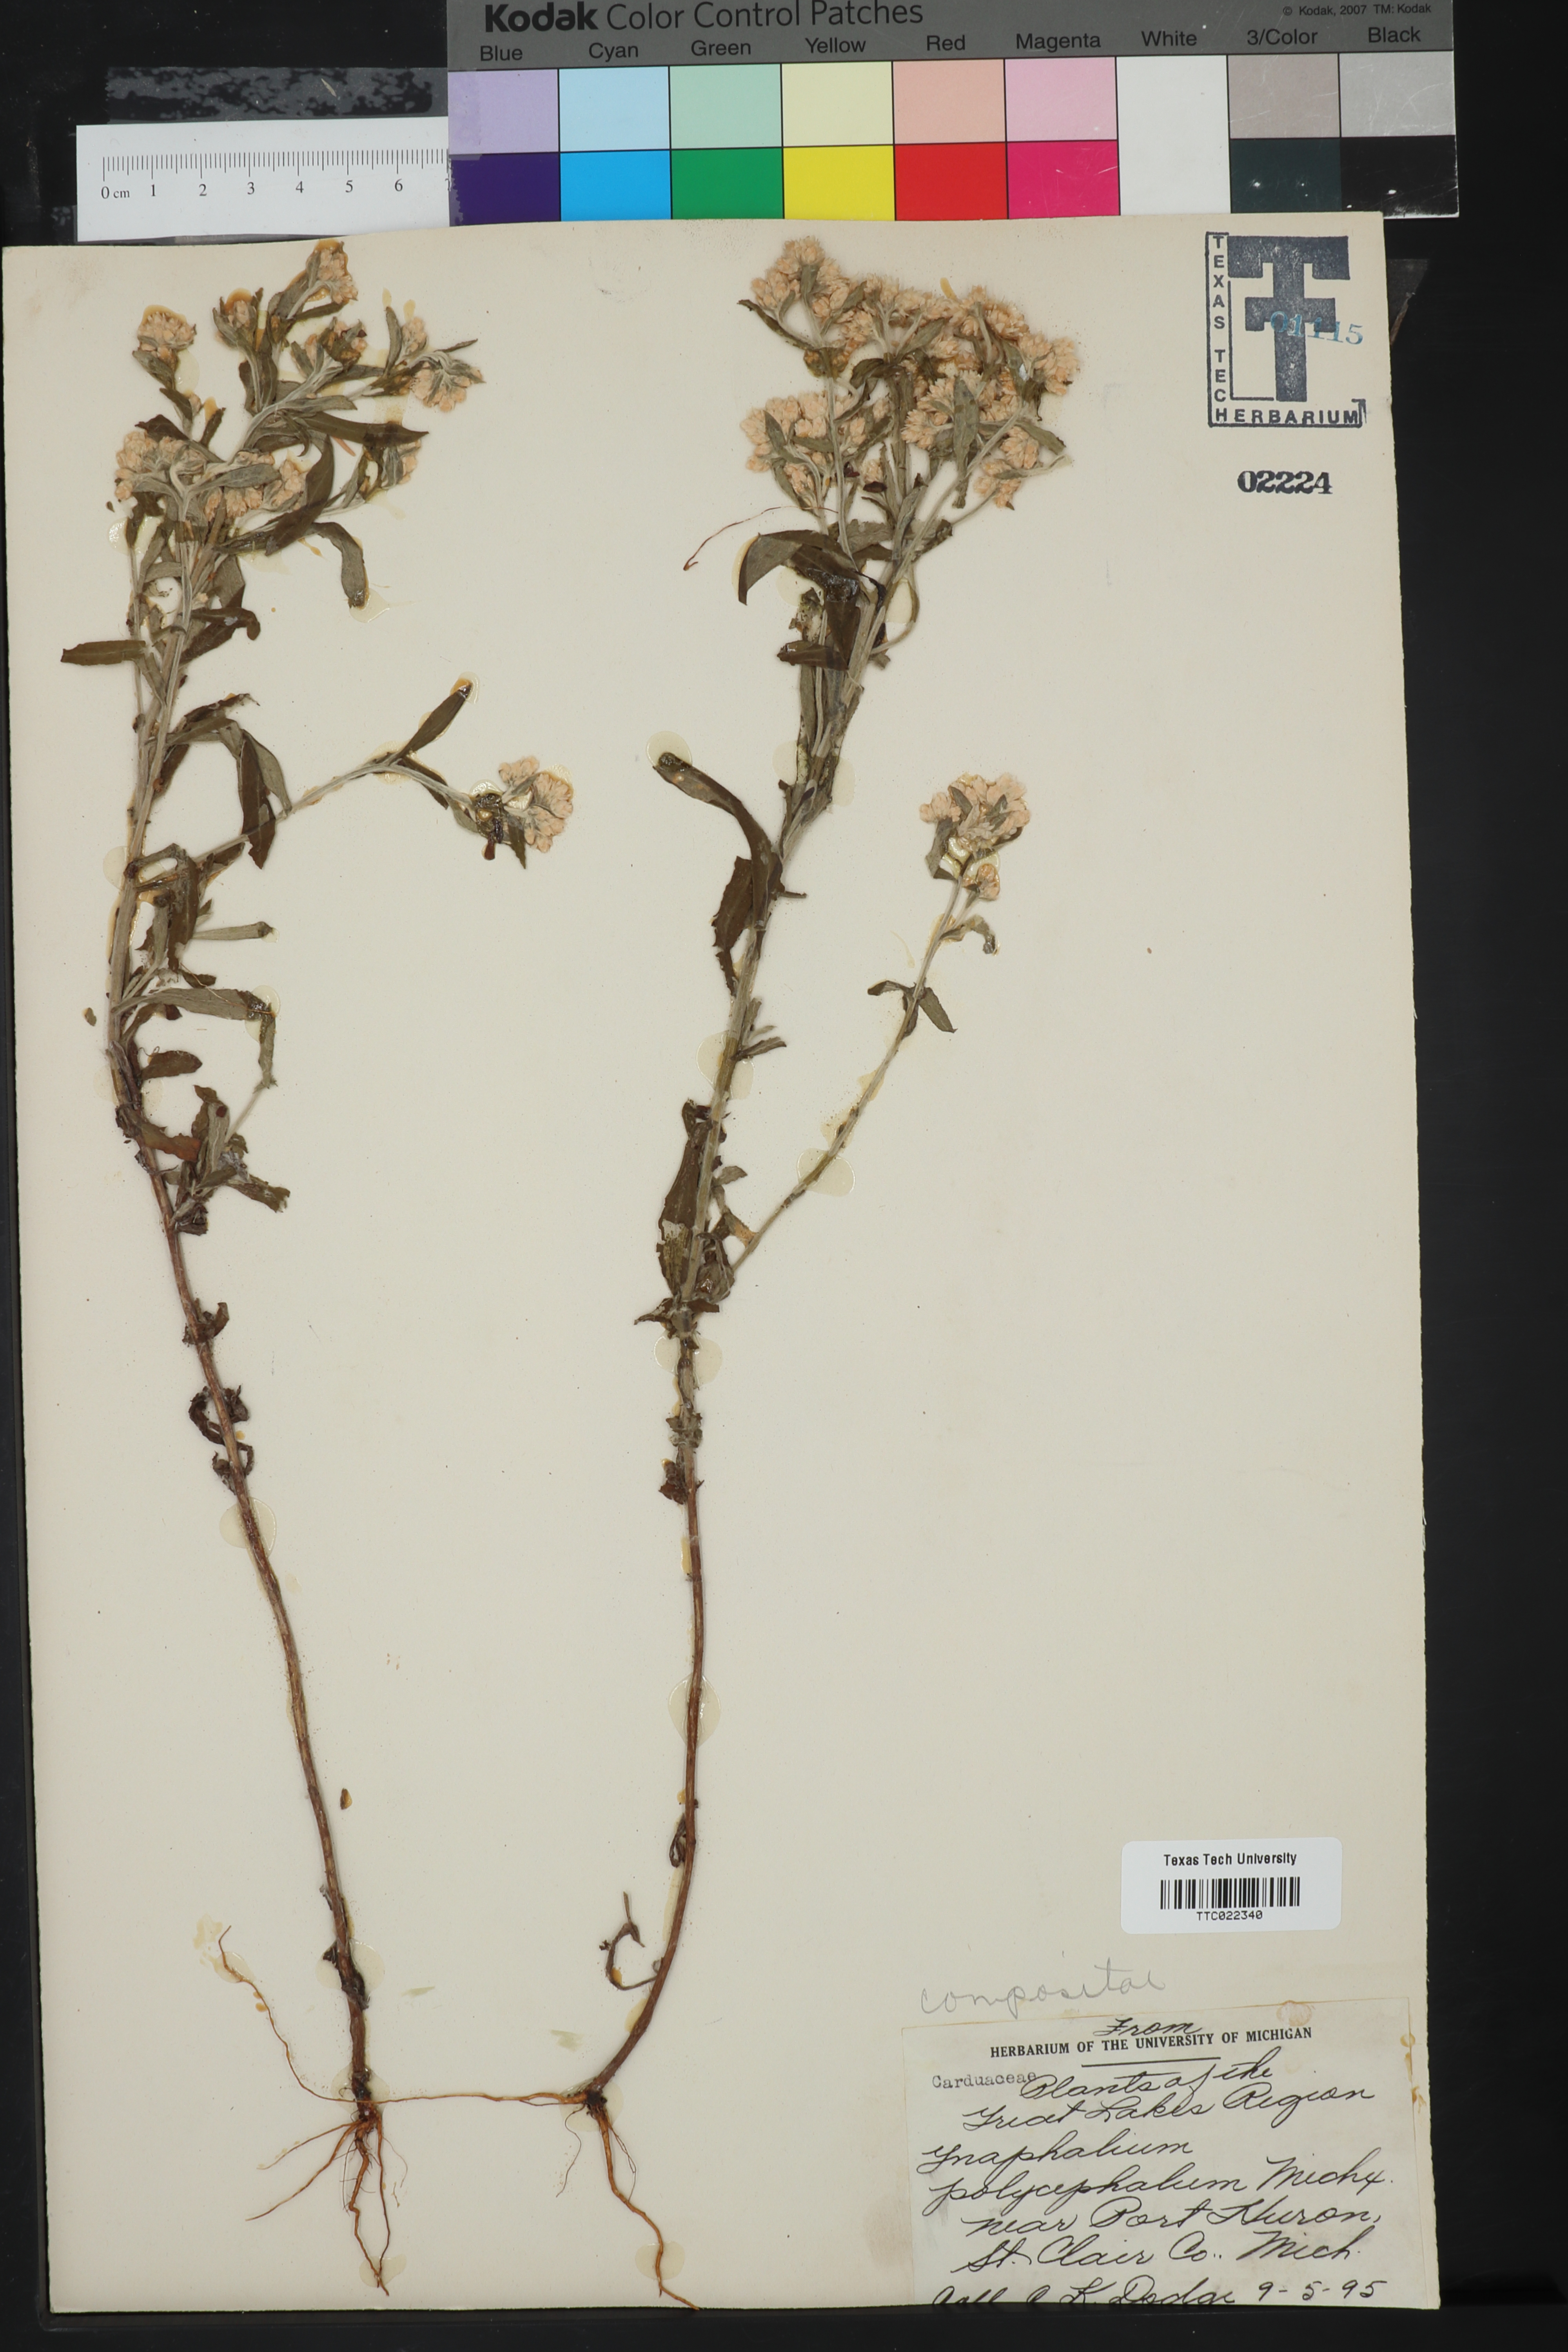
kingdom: Plantae
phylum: Tracheophyta
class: Magnoliopsida
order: Asterales
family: Asteraceae
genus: Helichrysum
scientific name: Helichrysum nodiflorum
